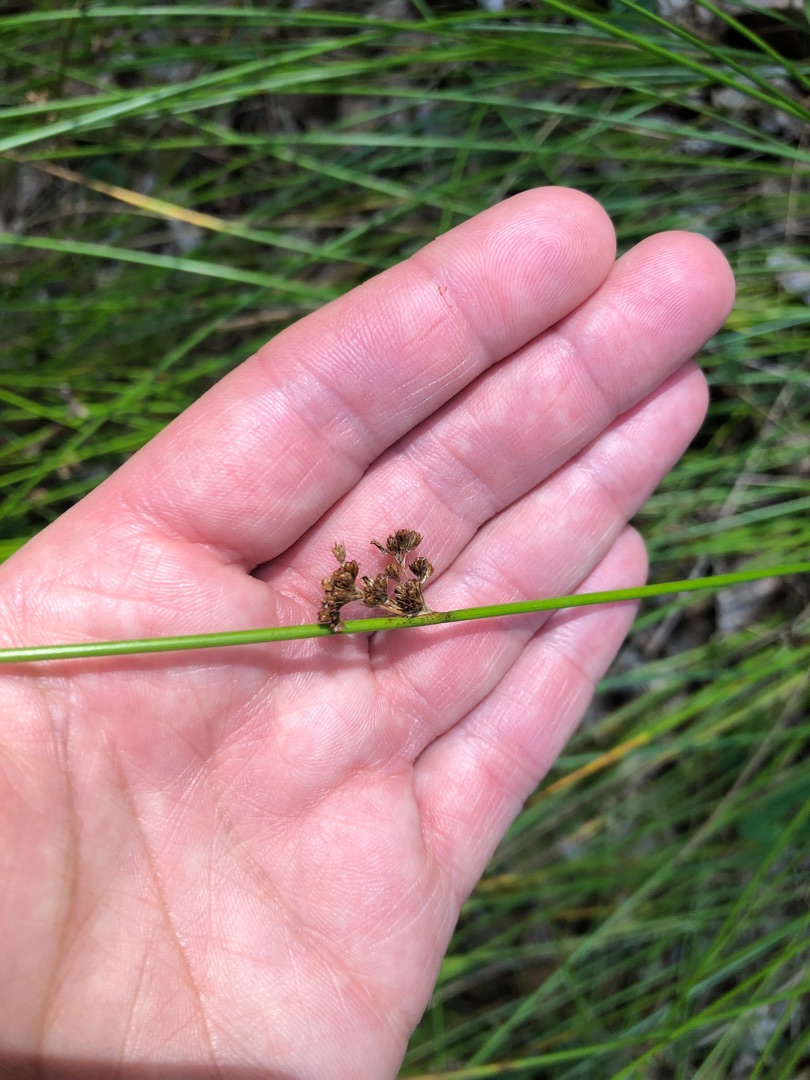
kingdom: Plantae
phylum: Tracheophyta
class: Liliopsida
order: Poales
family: Juncaceae
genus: Juncus
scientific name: Juncus effusus
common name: Lyse-siv
